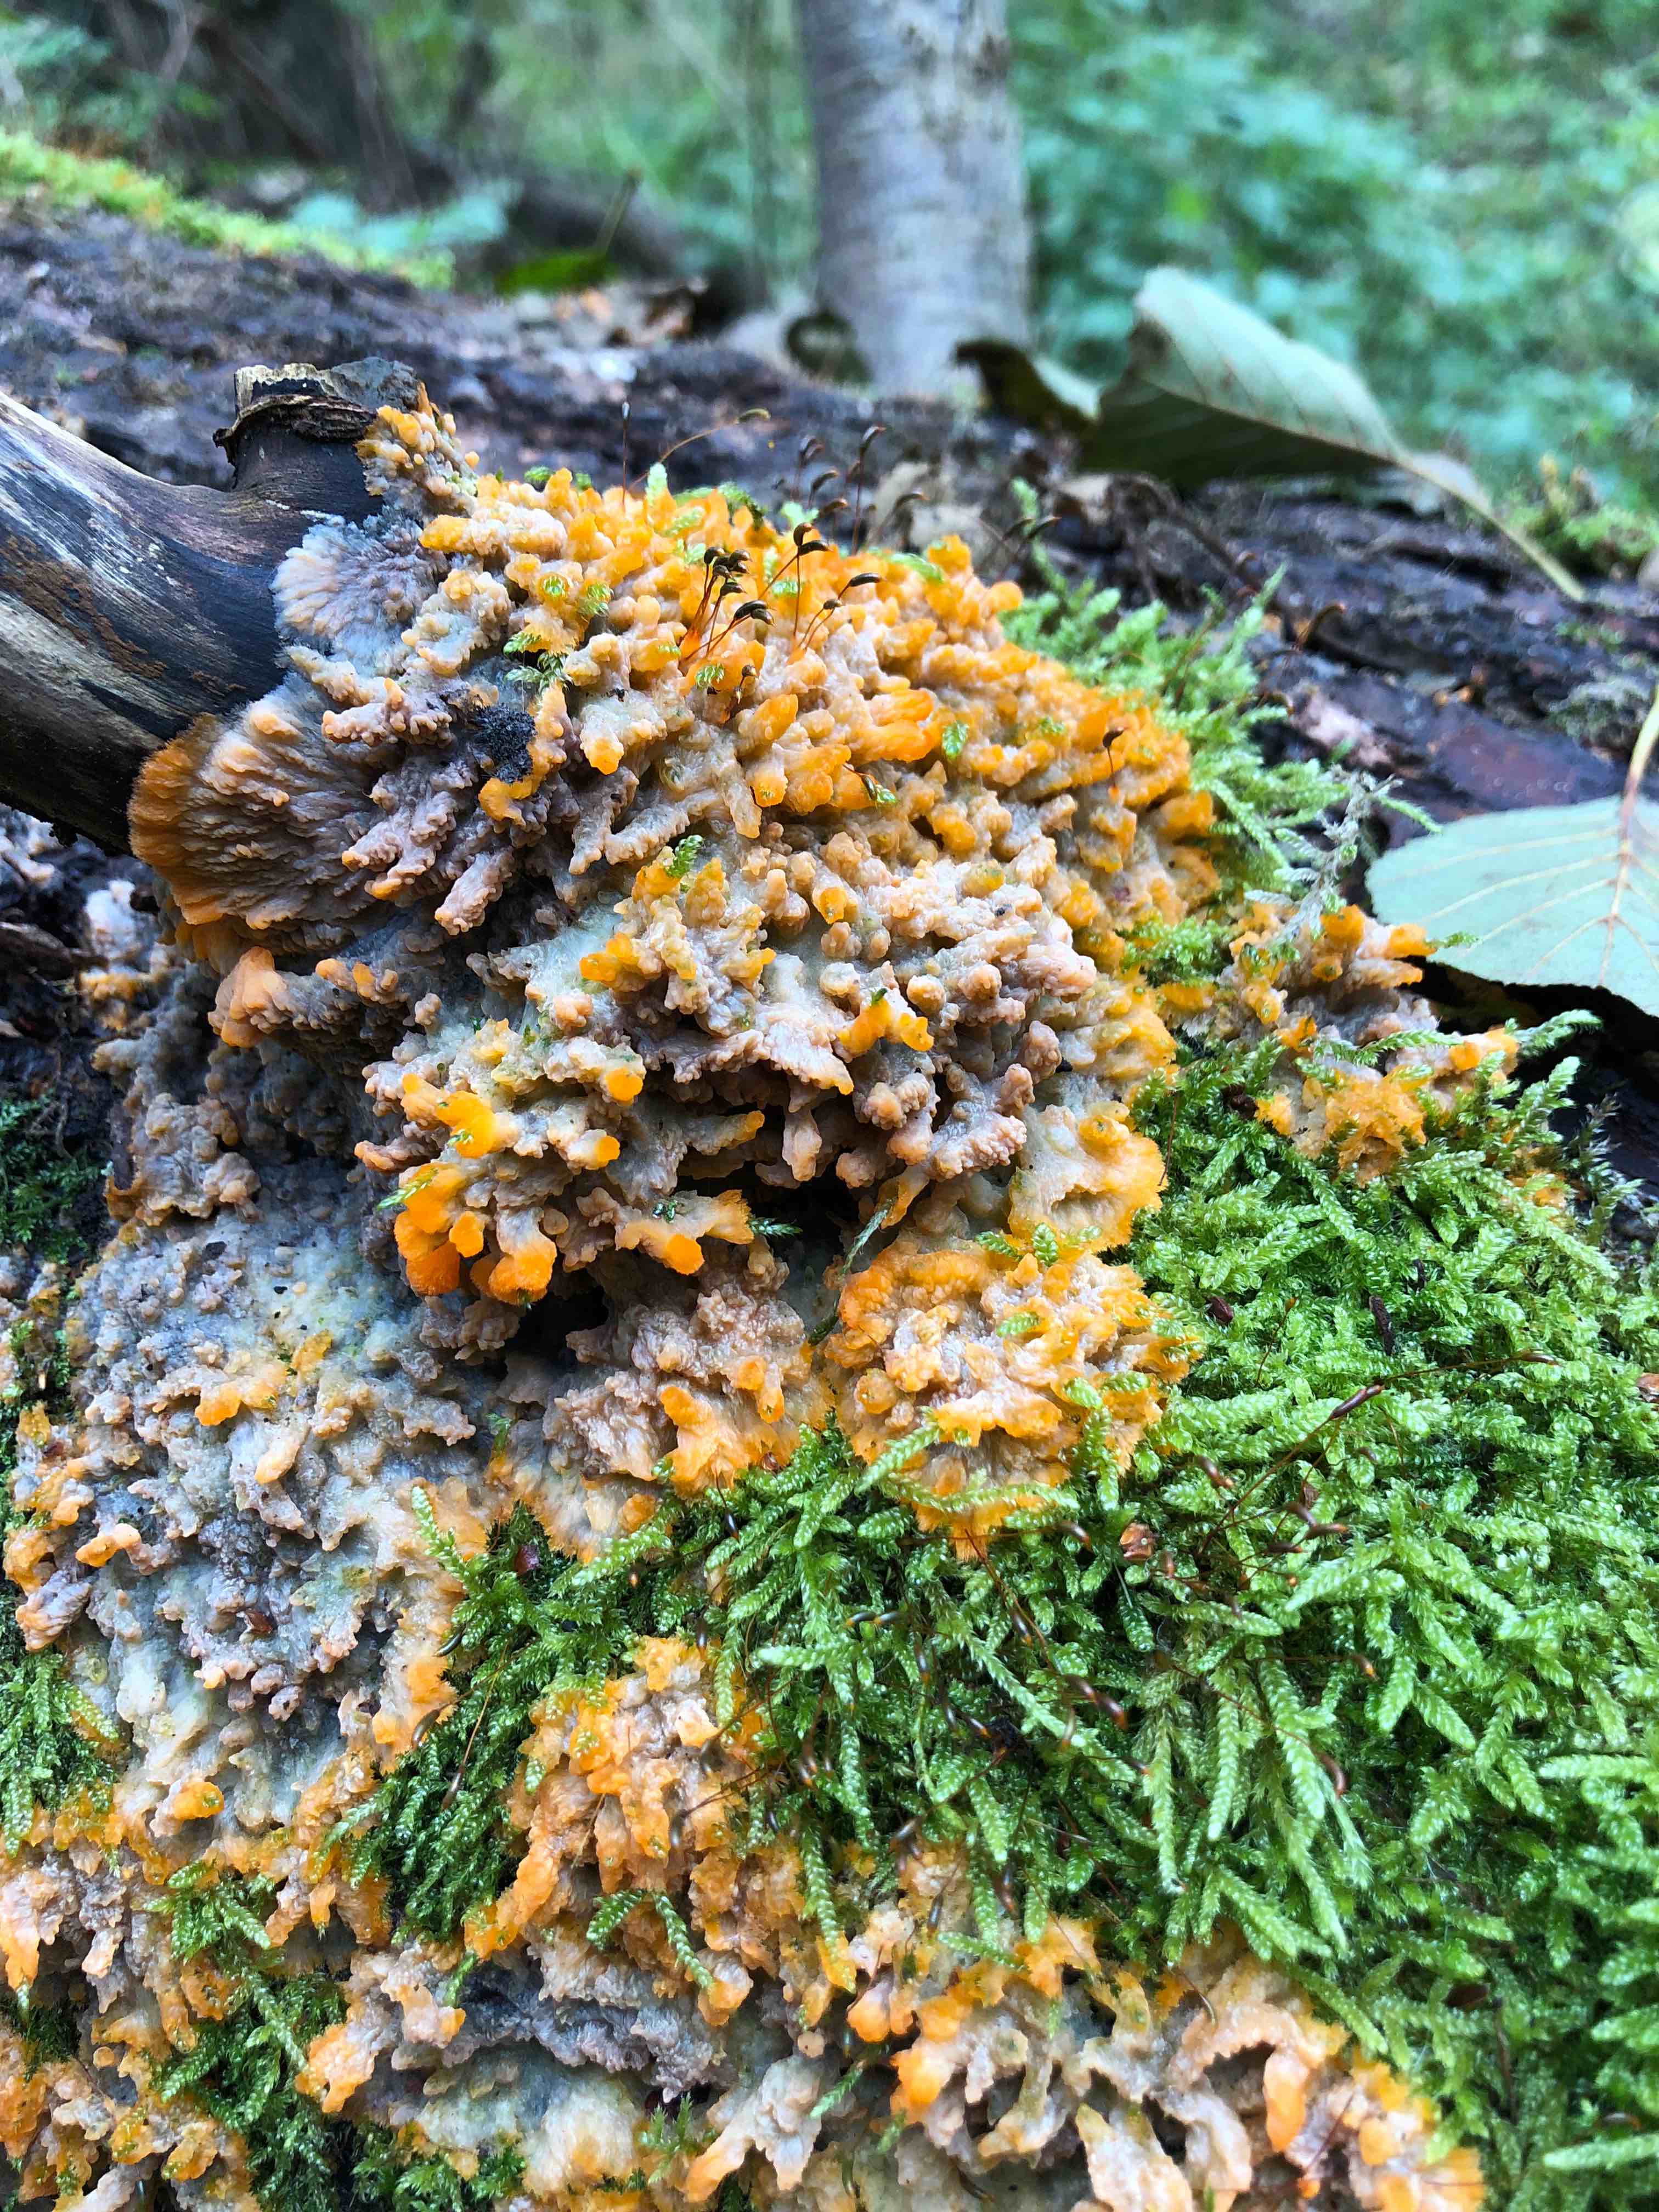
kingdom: Fungi
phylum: Basidiomycota
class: Agaricomycetes
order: Polyporales
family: Meruliaceae
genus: Phlebia
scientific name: Phlebia radiata
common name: stråle-åresvamp
